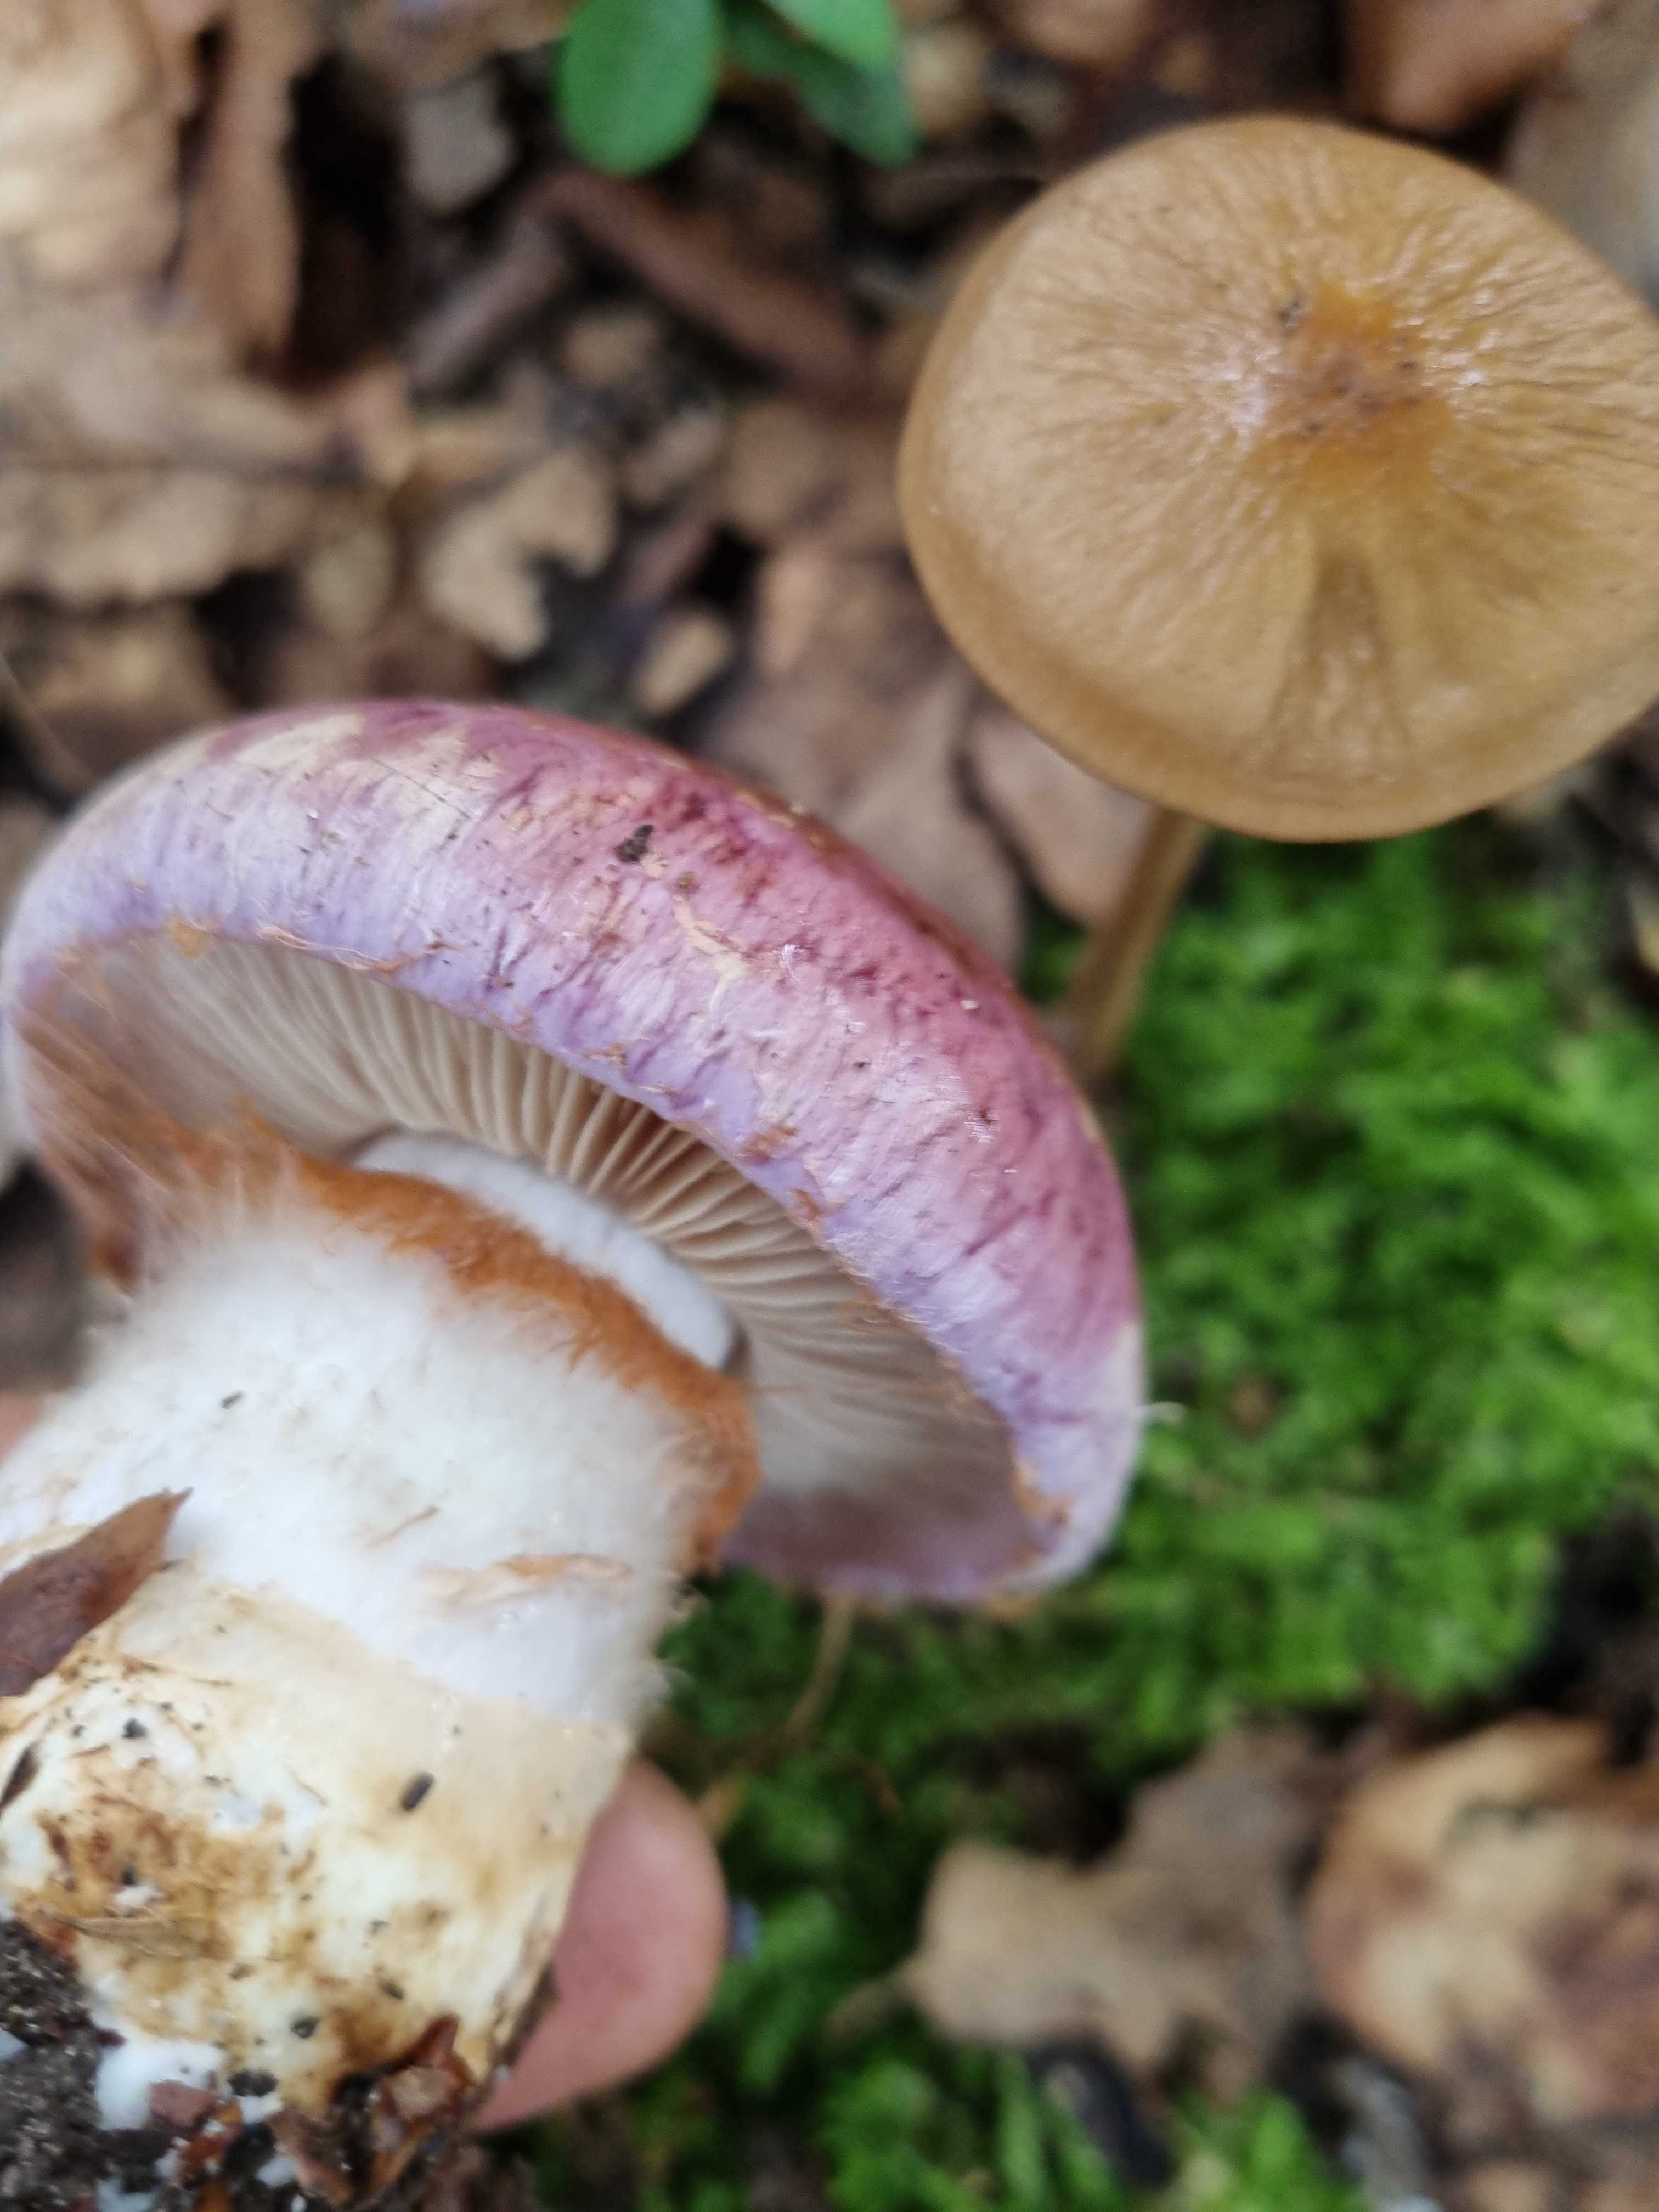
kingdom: Fungi
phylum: Basidiomycota
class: Agaricomycetes
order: Agaricales
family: Cortinariaceae
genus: Phlegmacium
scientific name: Phlegmacium balteatocumatile
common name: violettrådet slørhat
